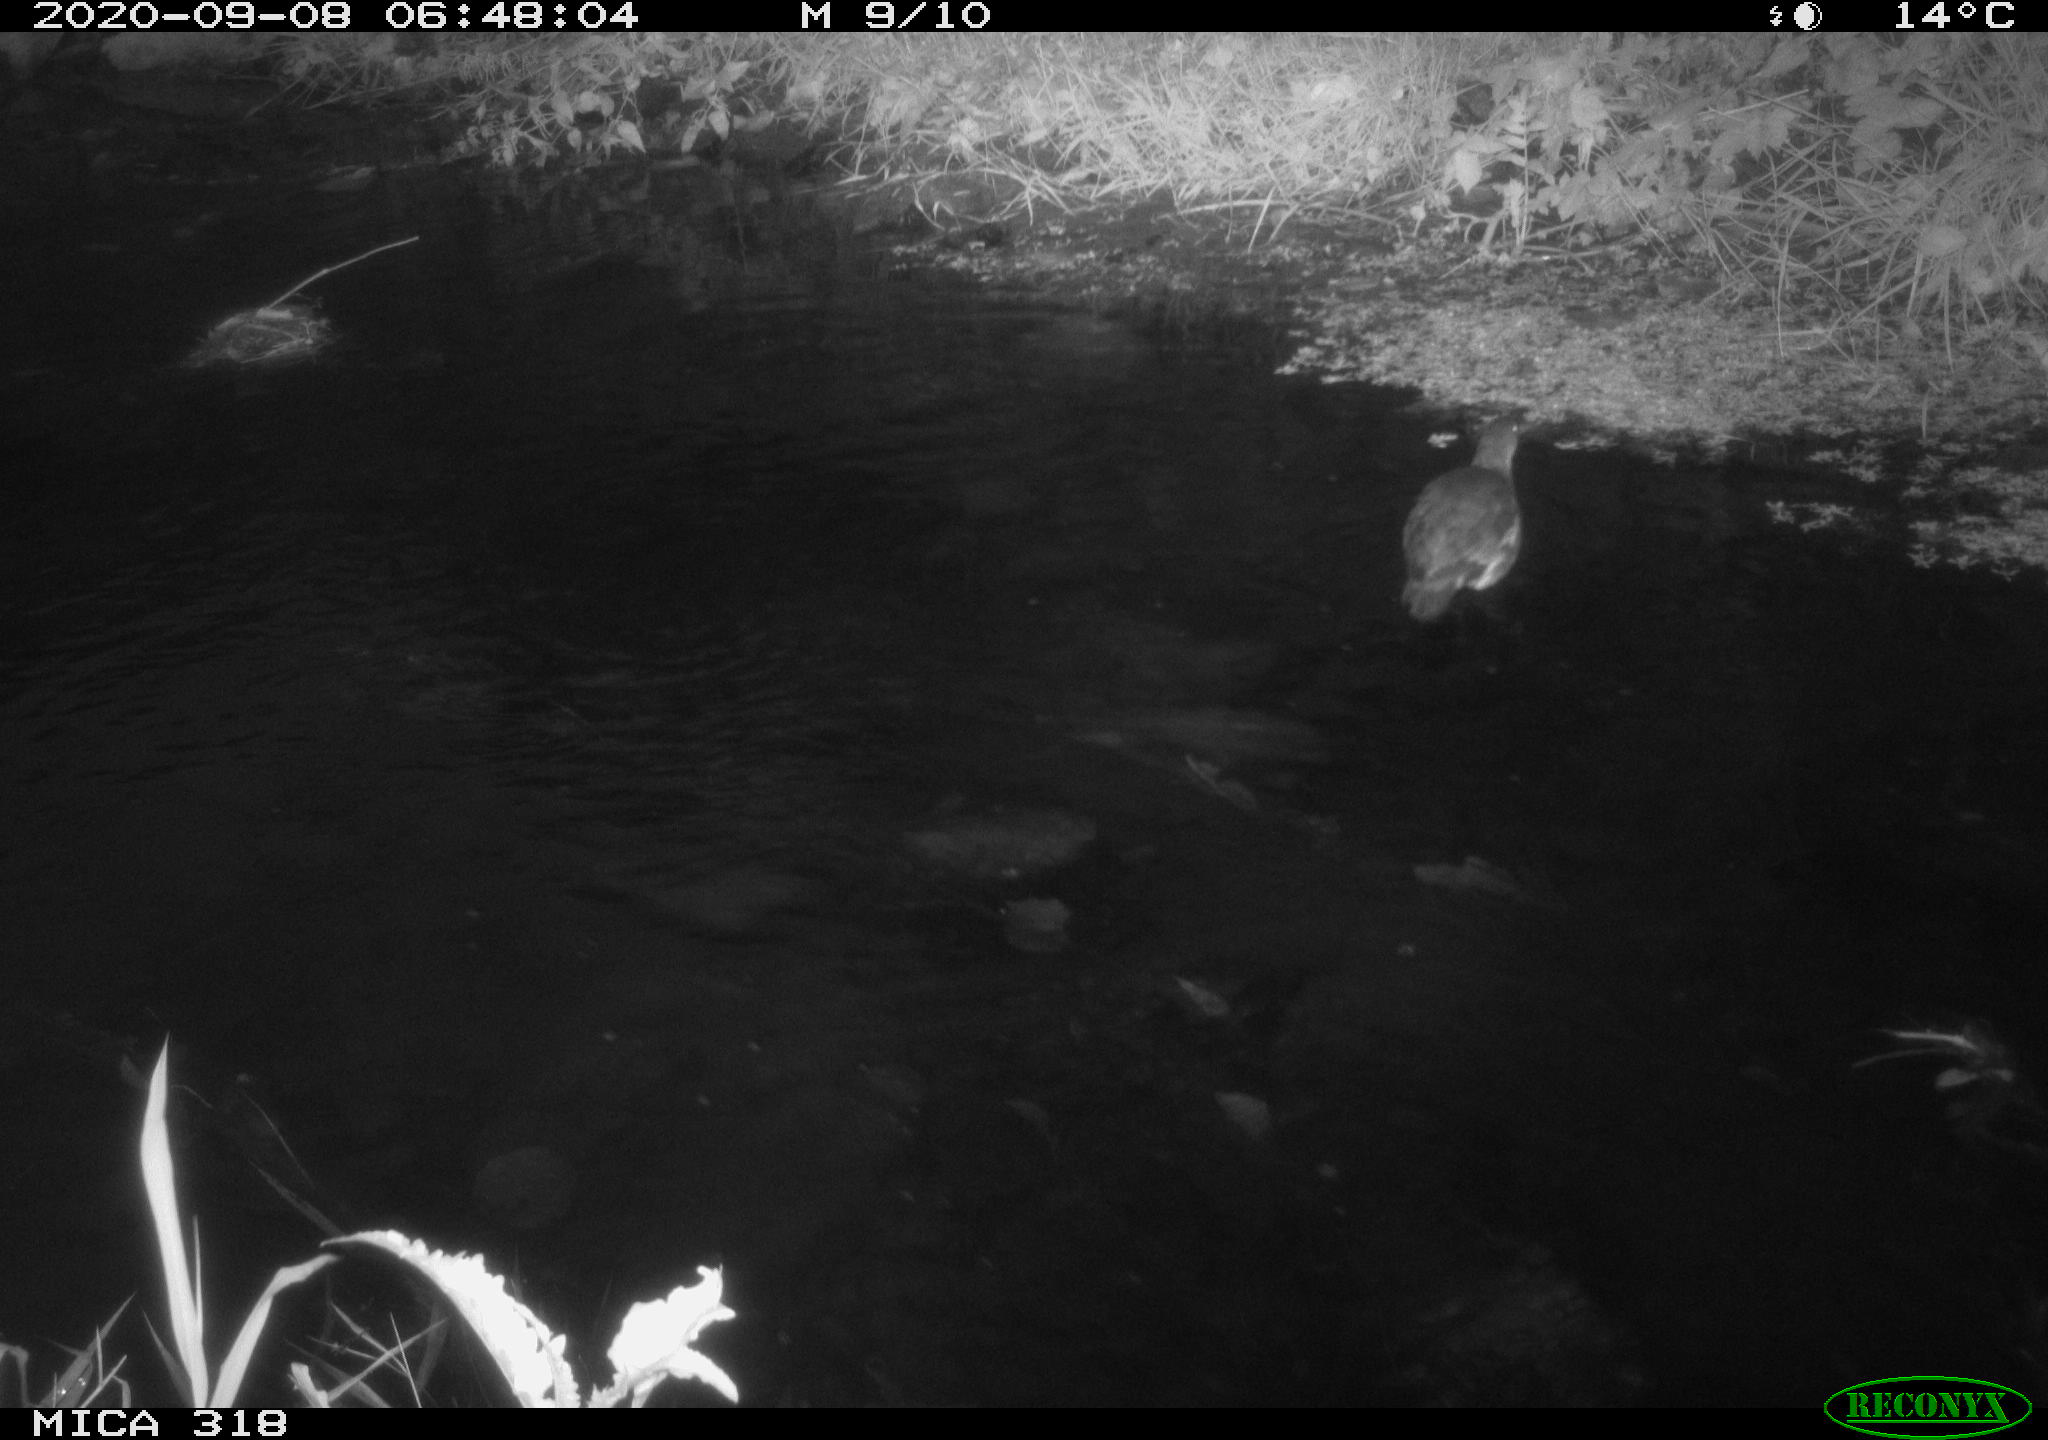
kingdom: Animalia
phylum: Chordata
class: Aves
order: Gruiformes
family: Rallidae
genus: Gallinula
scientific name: Gallinula chloropus
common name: Common moorhen
